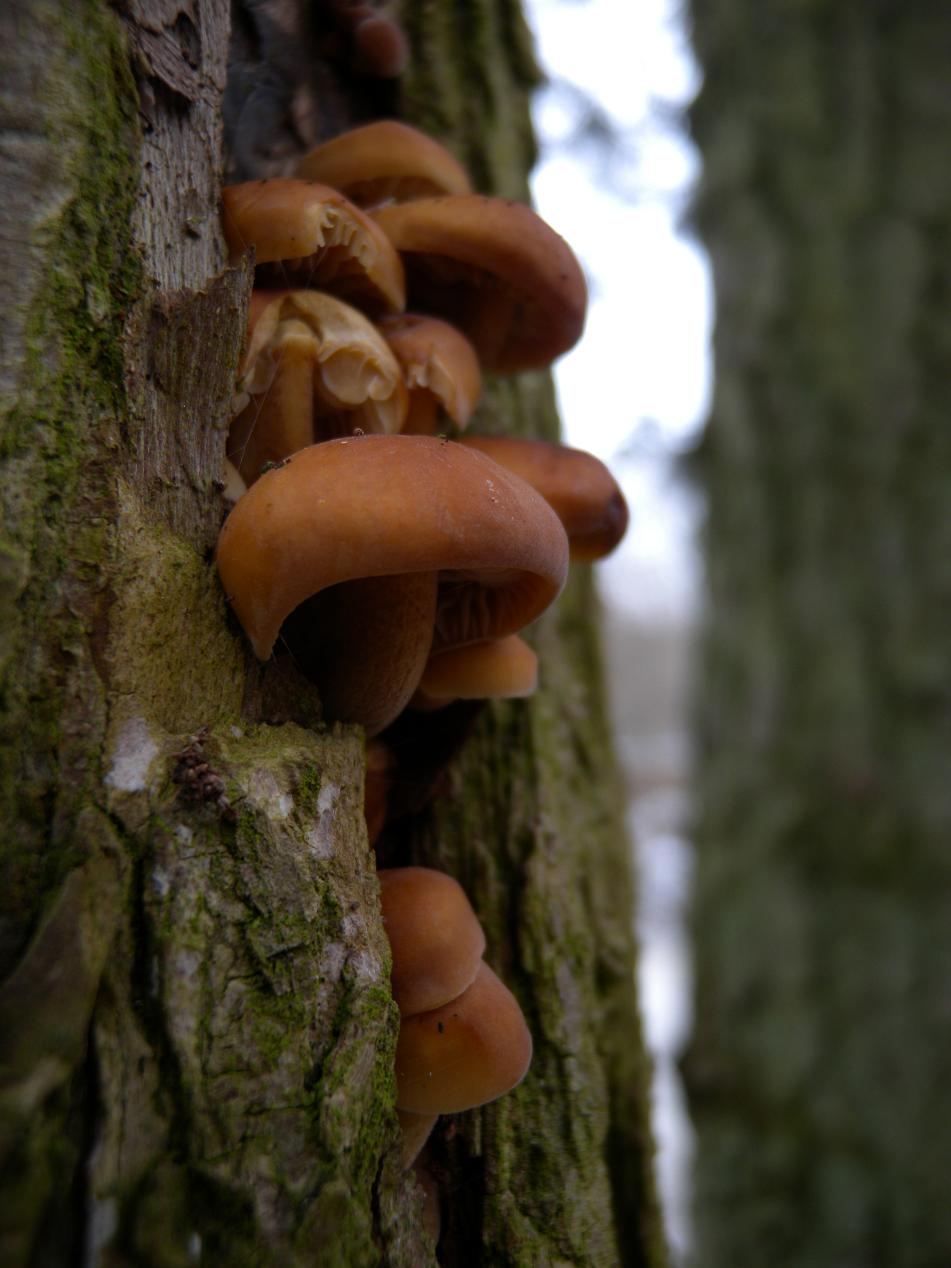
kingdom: Fungi
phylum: Basidiomycota
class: Agaricomycetes
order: Agaricales
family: Physalacriaceae
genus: Flammulina
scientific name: Flammulina velutipes
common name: gul fløjlsfod
